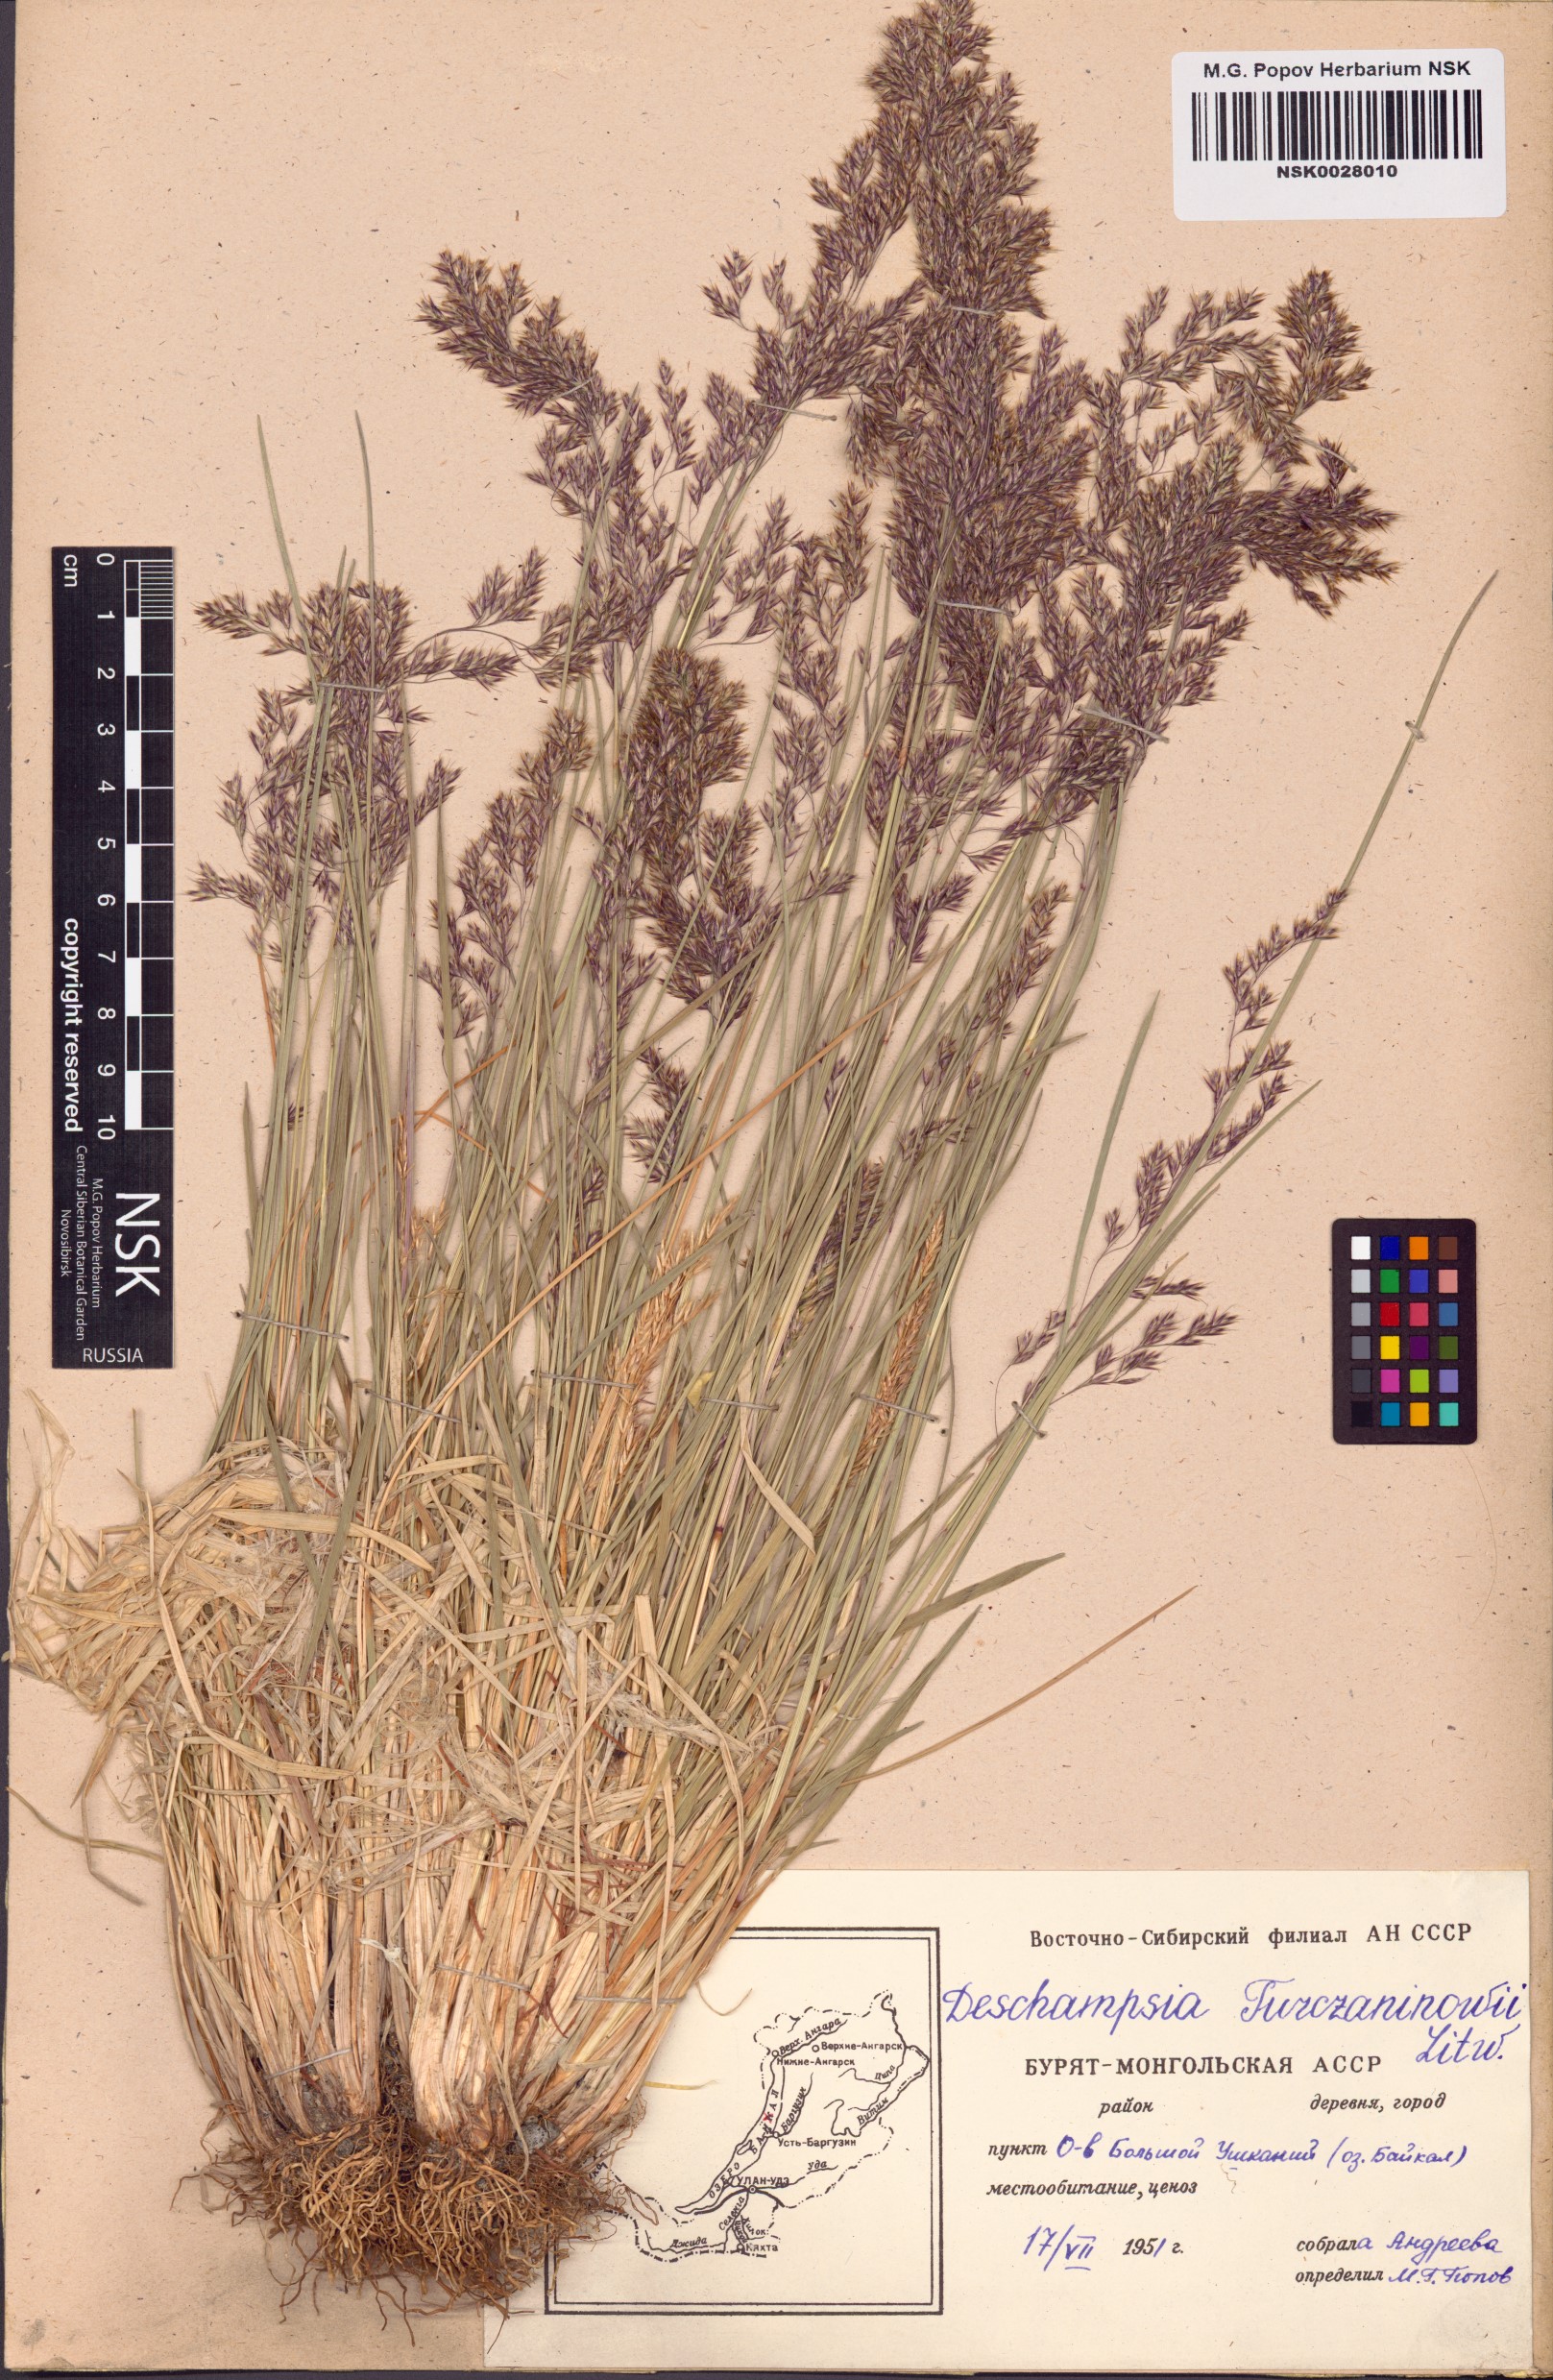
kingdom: Plantae
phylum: Tracheophyta
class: Liliopsida
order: Poales
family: Poaceae
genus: Deschampsia
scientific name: Deschampsia cespitosa
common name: Tufted hair-grass
